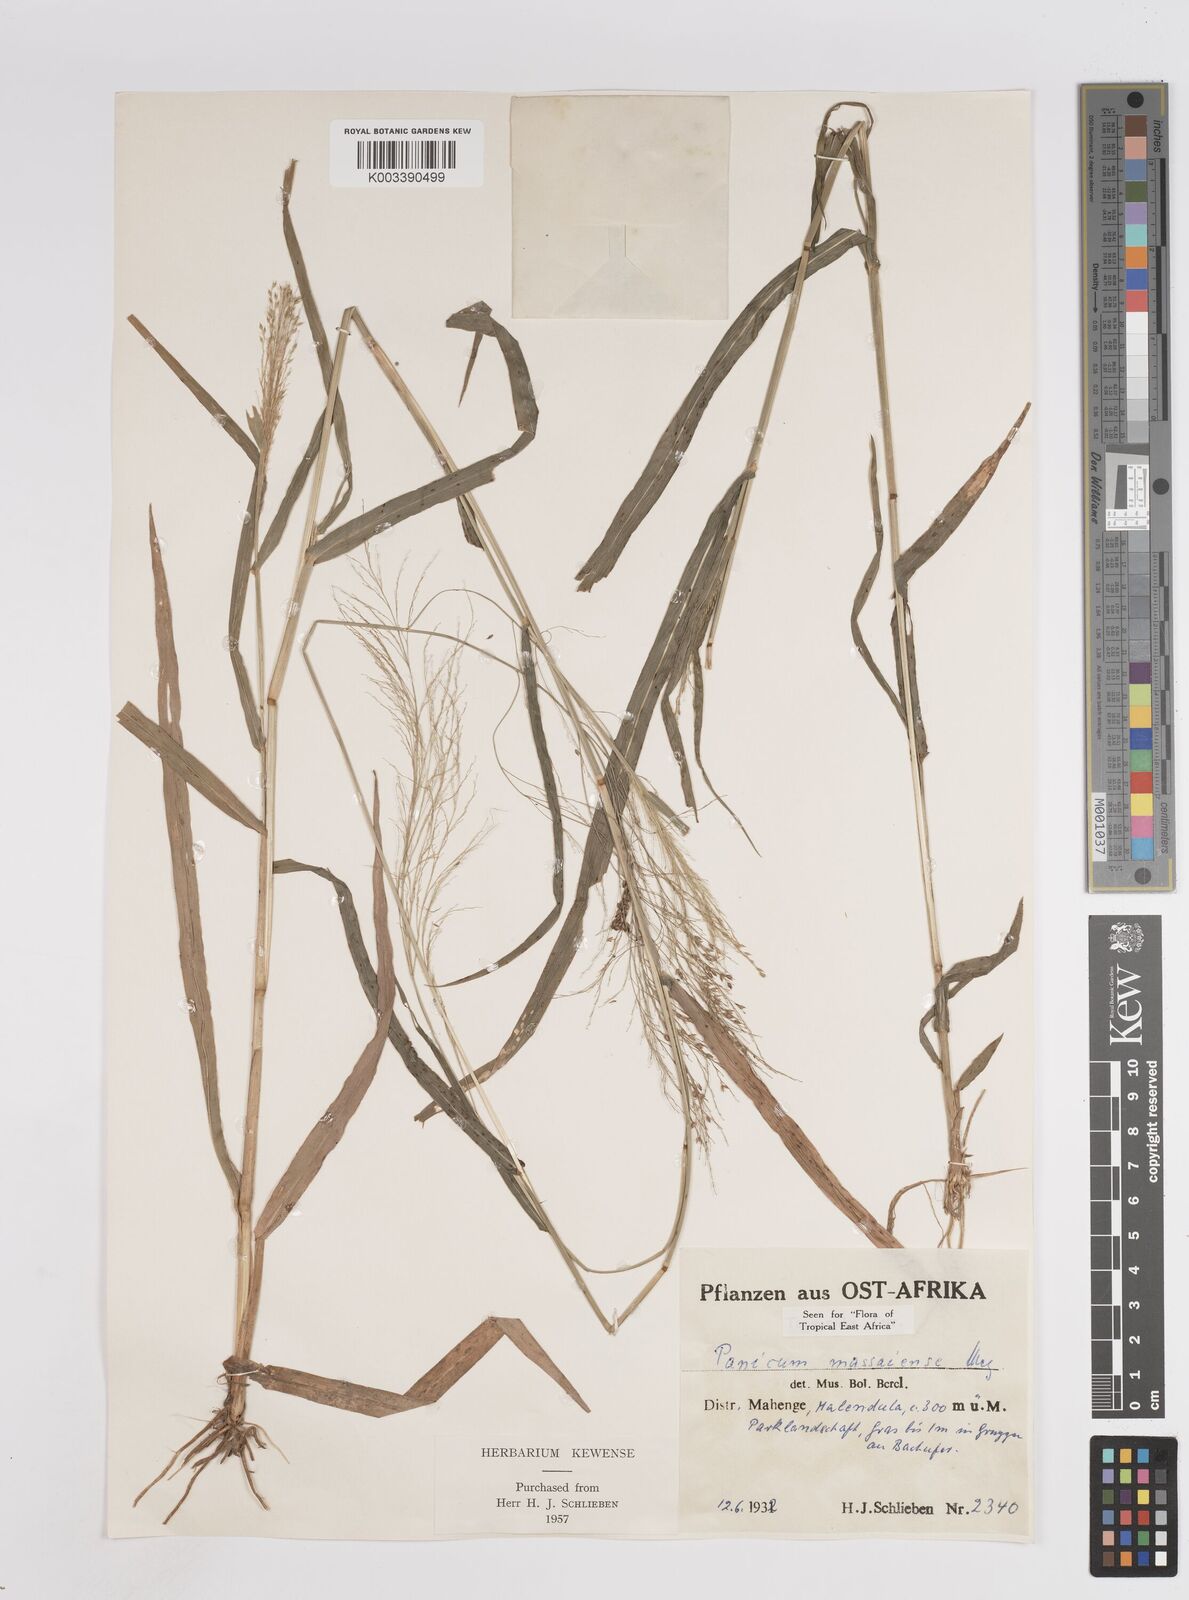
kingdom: Plantae
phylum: Tracheophyta
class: Liliopsida
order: Poales
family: Poaceae
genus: Panicum
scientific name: Panicum massaiense
